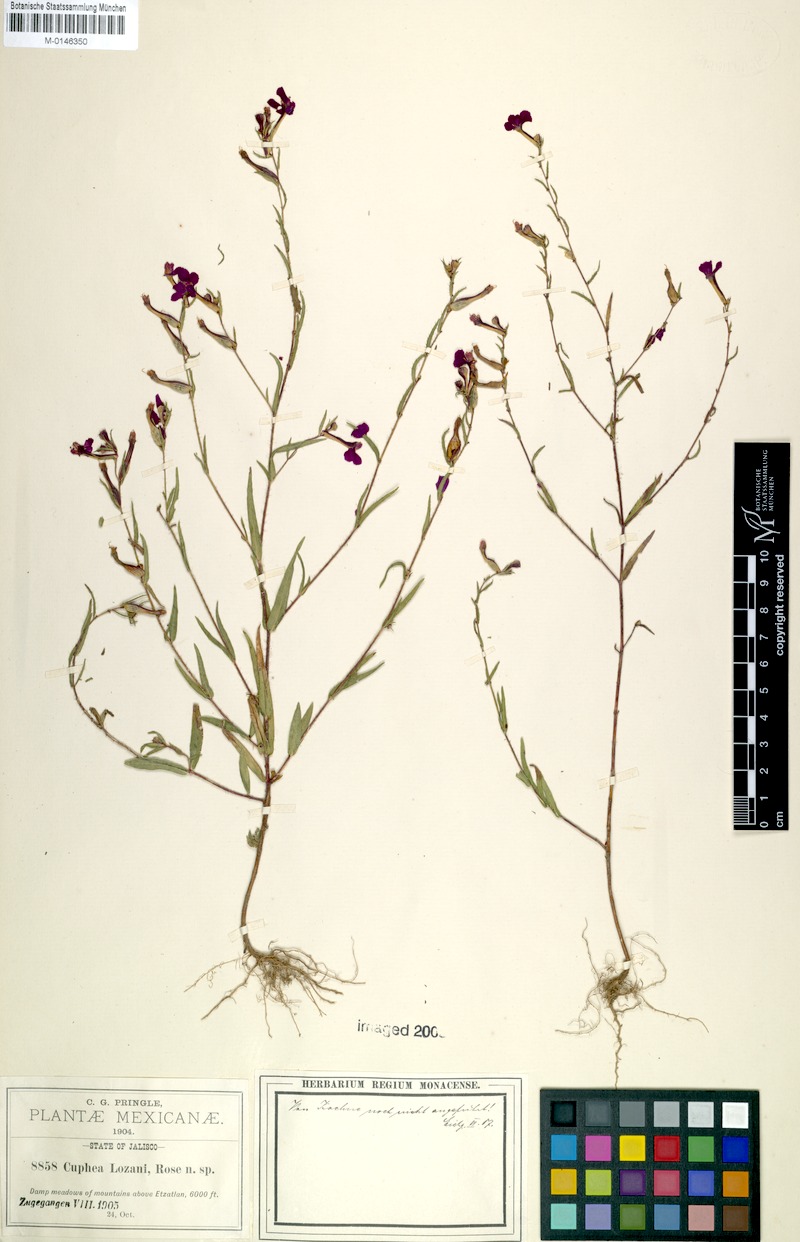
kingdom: Plantae
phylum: Tracheophyta
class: Magnoliopsida
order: Myrtales
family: Lythraceae
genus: Cuphea
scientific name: Cuphea lozani
